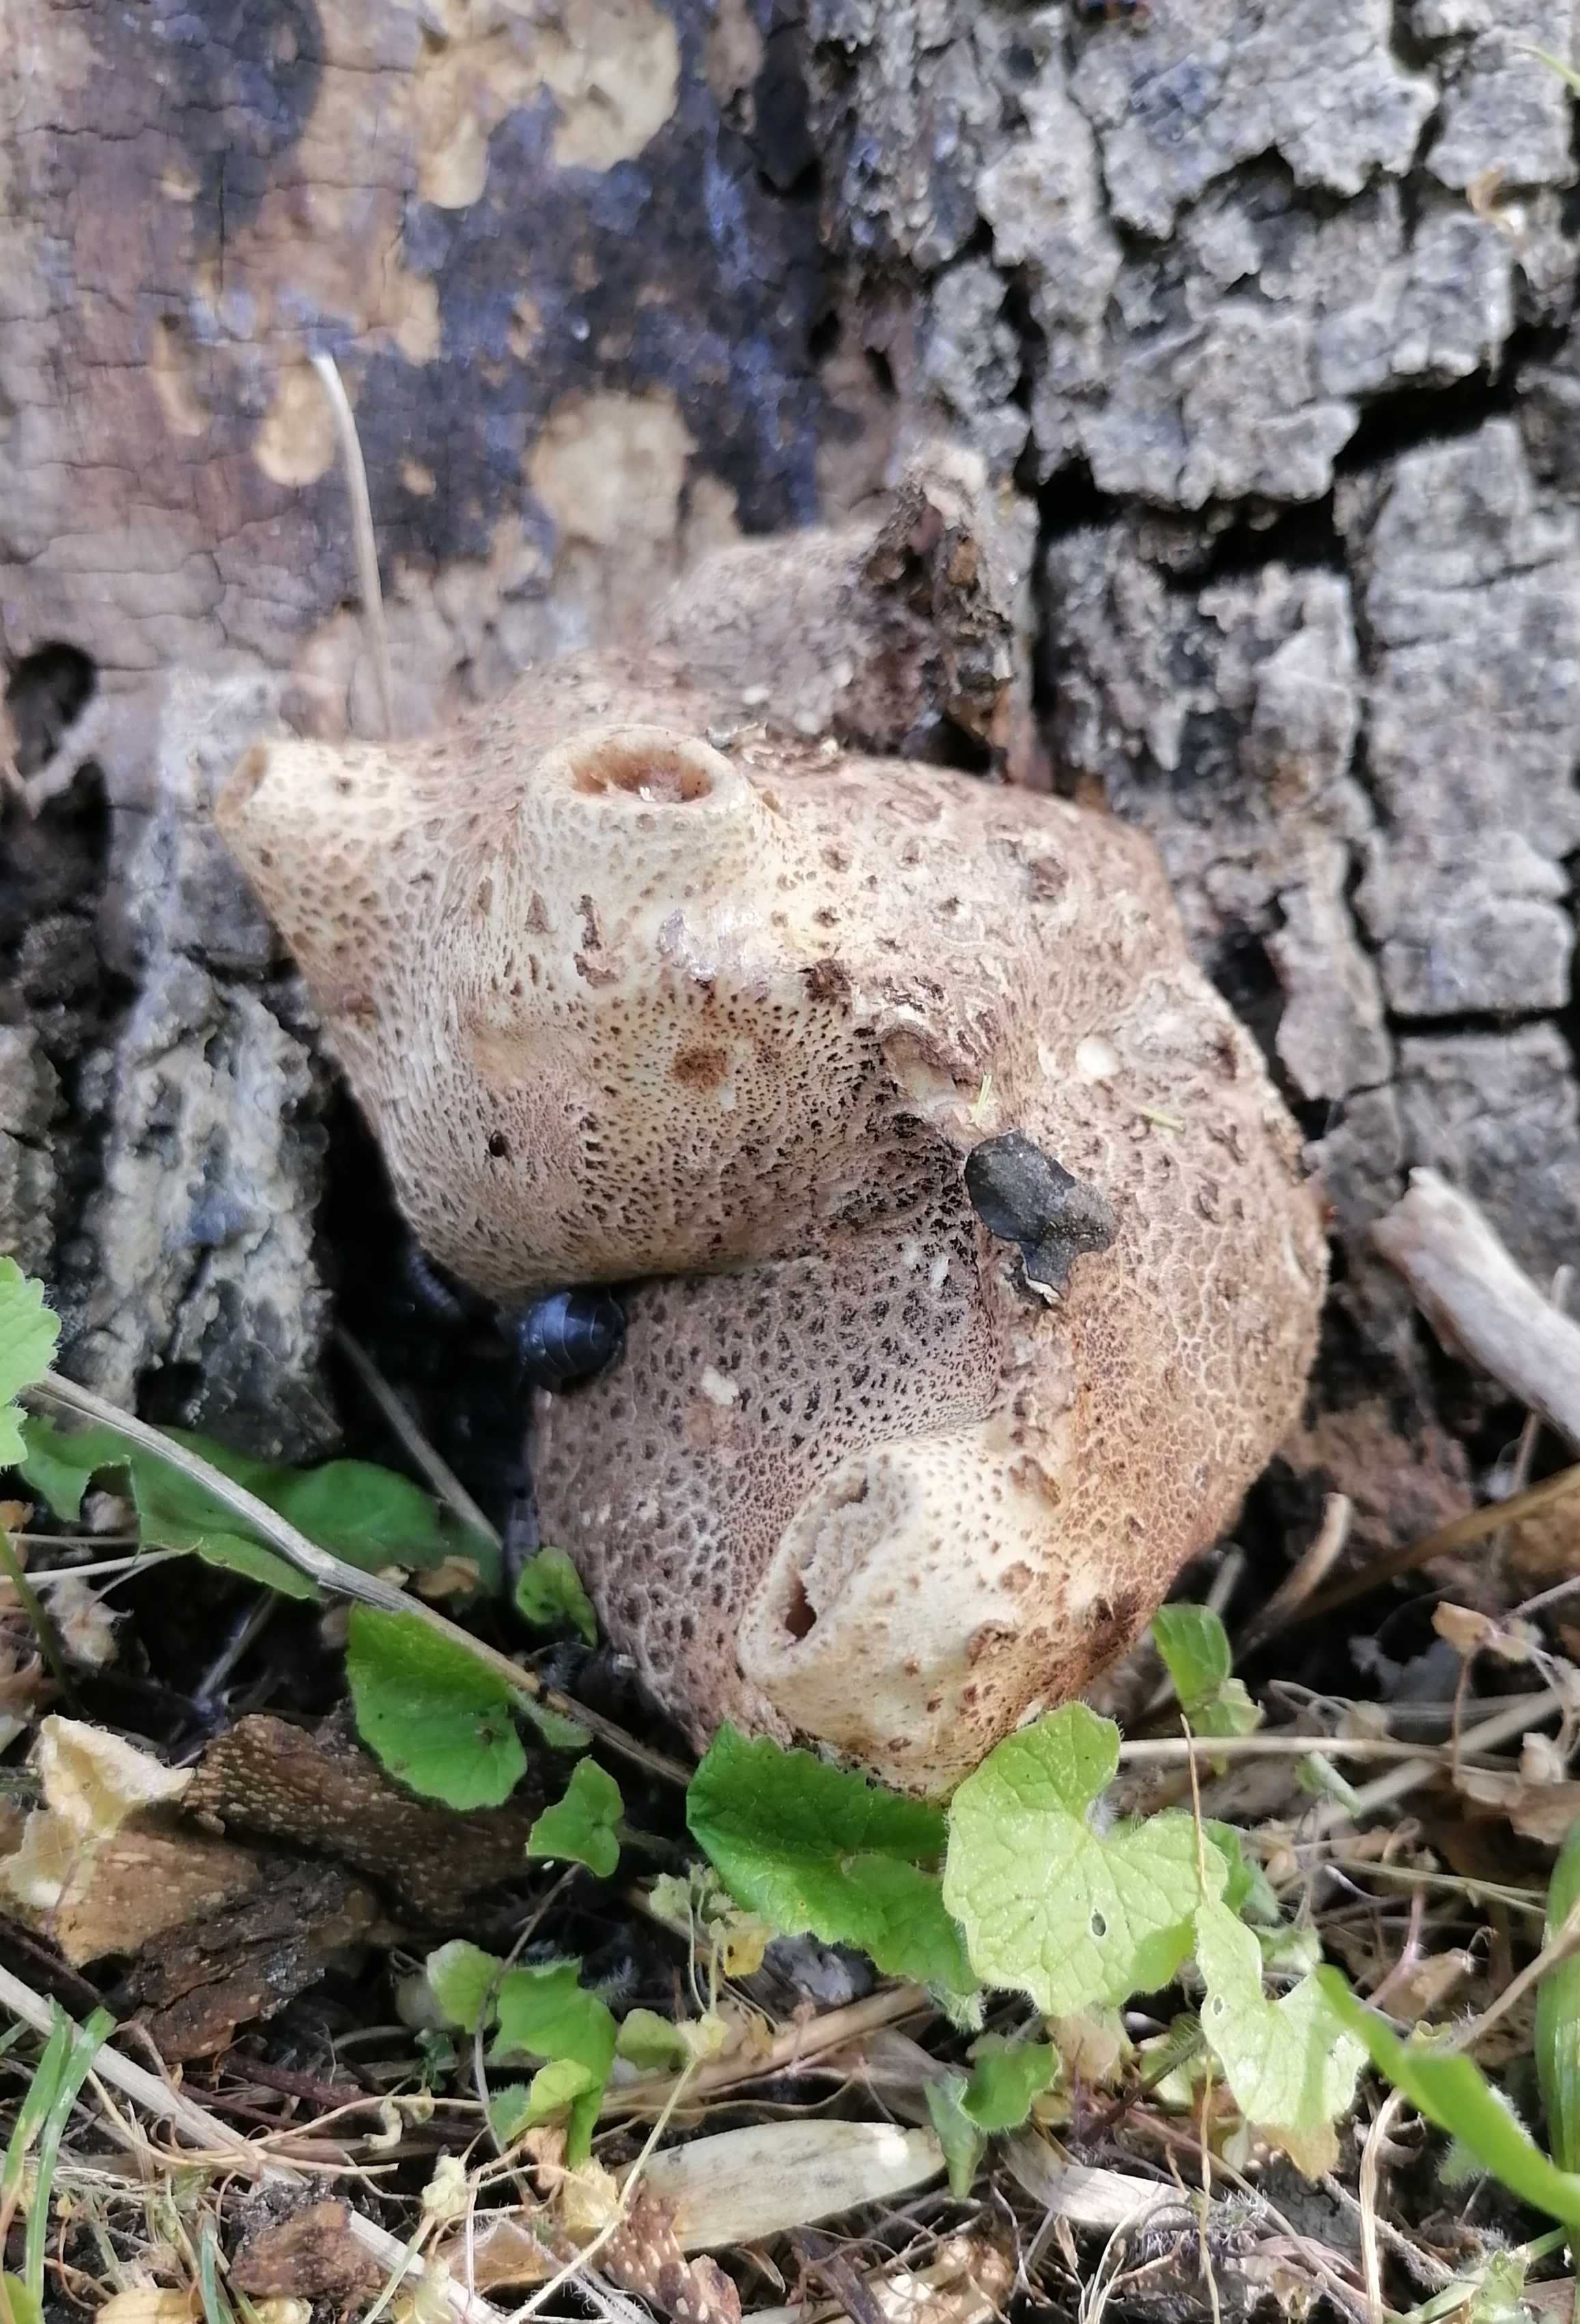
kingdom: Fungi
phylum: Basidiomycota
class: Agaricomycetes
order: Polyporales
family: Polyporaceae
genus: Cerioporus
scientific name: Cerioporus squamosus
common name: skællet stilkporesvamp
